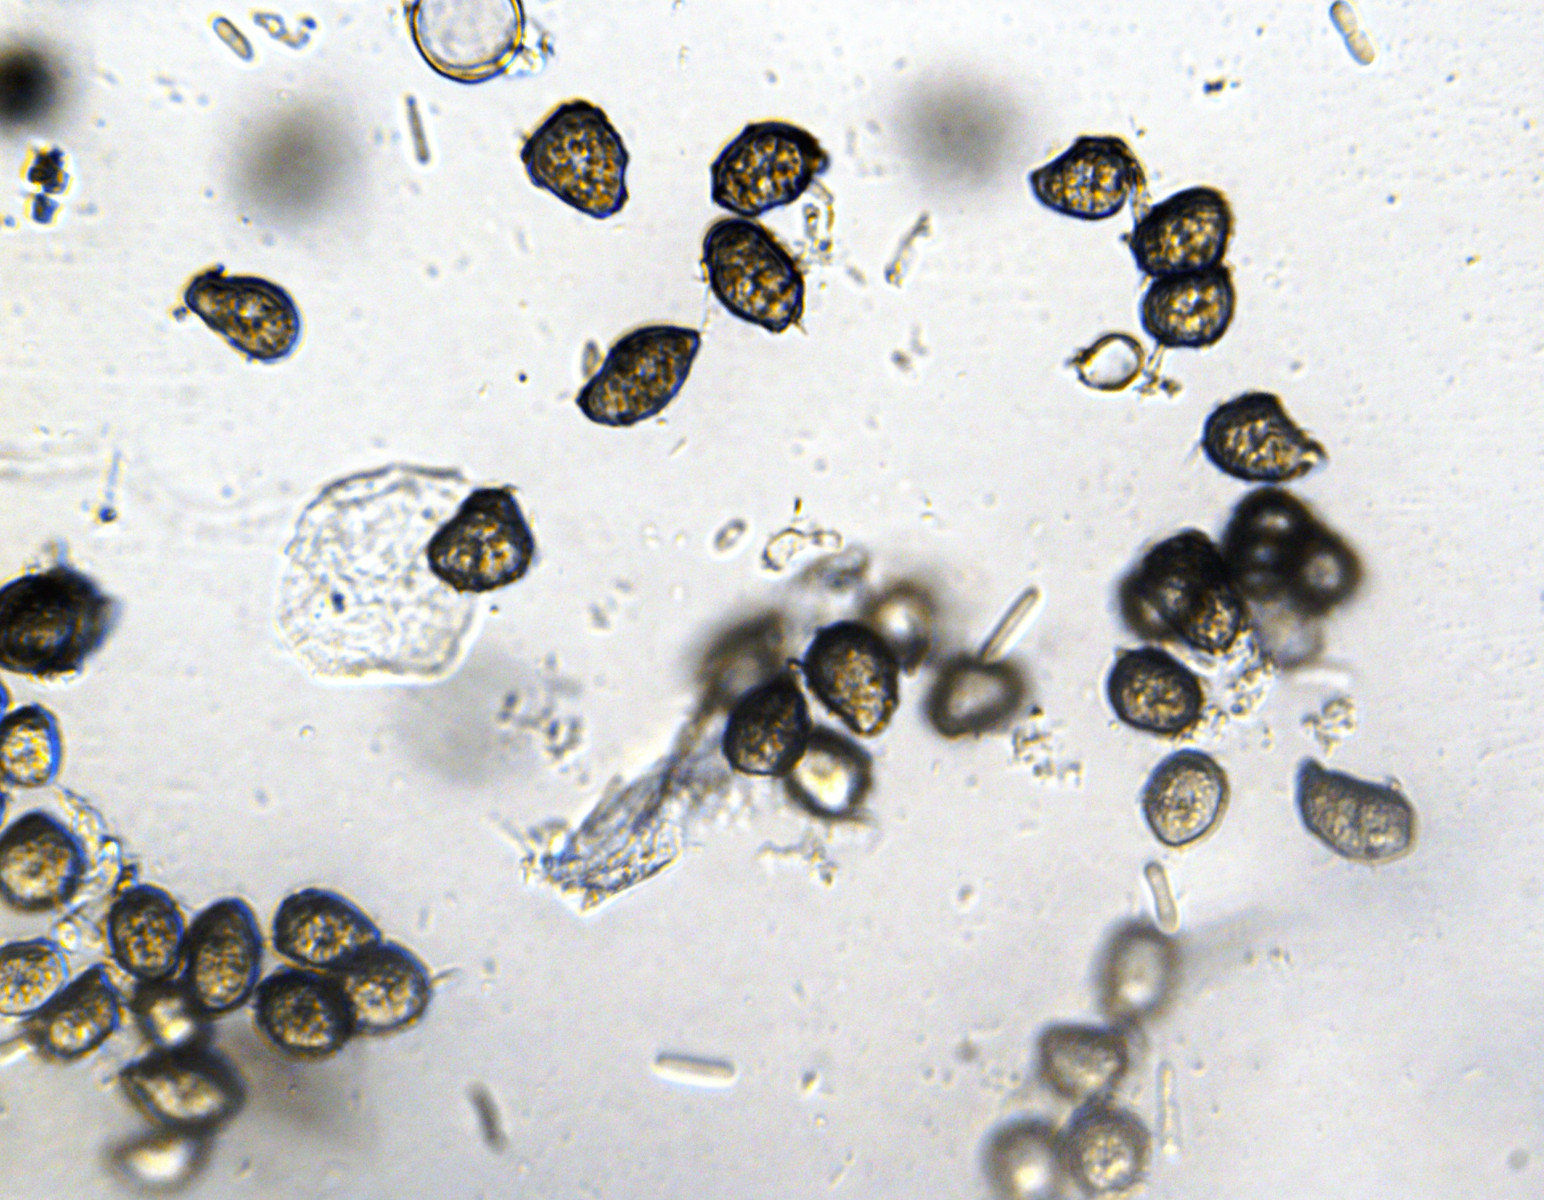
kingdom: Fungi
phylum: Basidiomycota
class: Ustilaginomycetes
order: Urocystidales
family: Urocystidaceae
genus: Vankya
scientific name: Vankya ornithogali
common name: Yellow star-of-bethlehem smut
